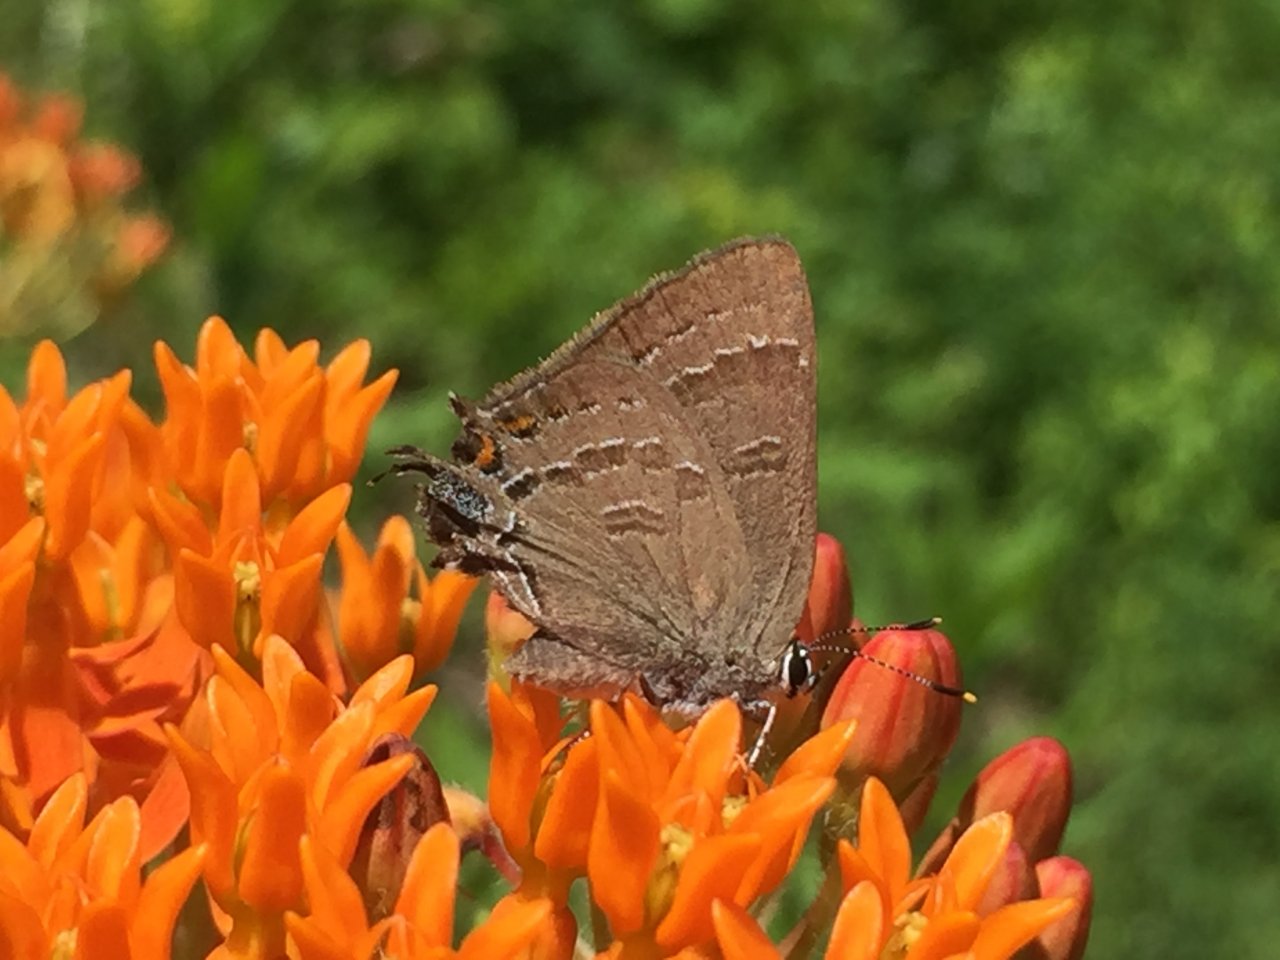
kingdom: Animalia
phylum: Arthropoda
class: Insecta
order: Lepidoptera
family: Lycaenidae
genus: Satyrium
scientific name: Satyrium calanus
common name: Banded Hairstreak
